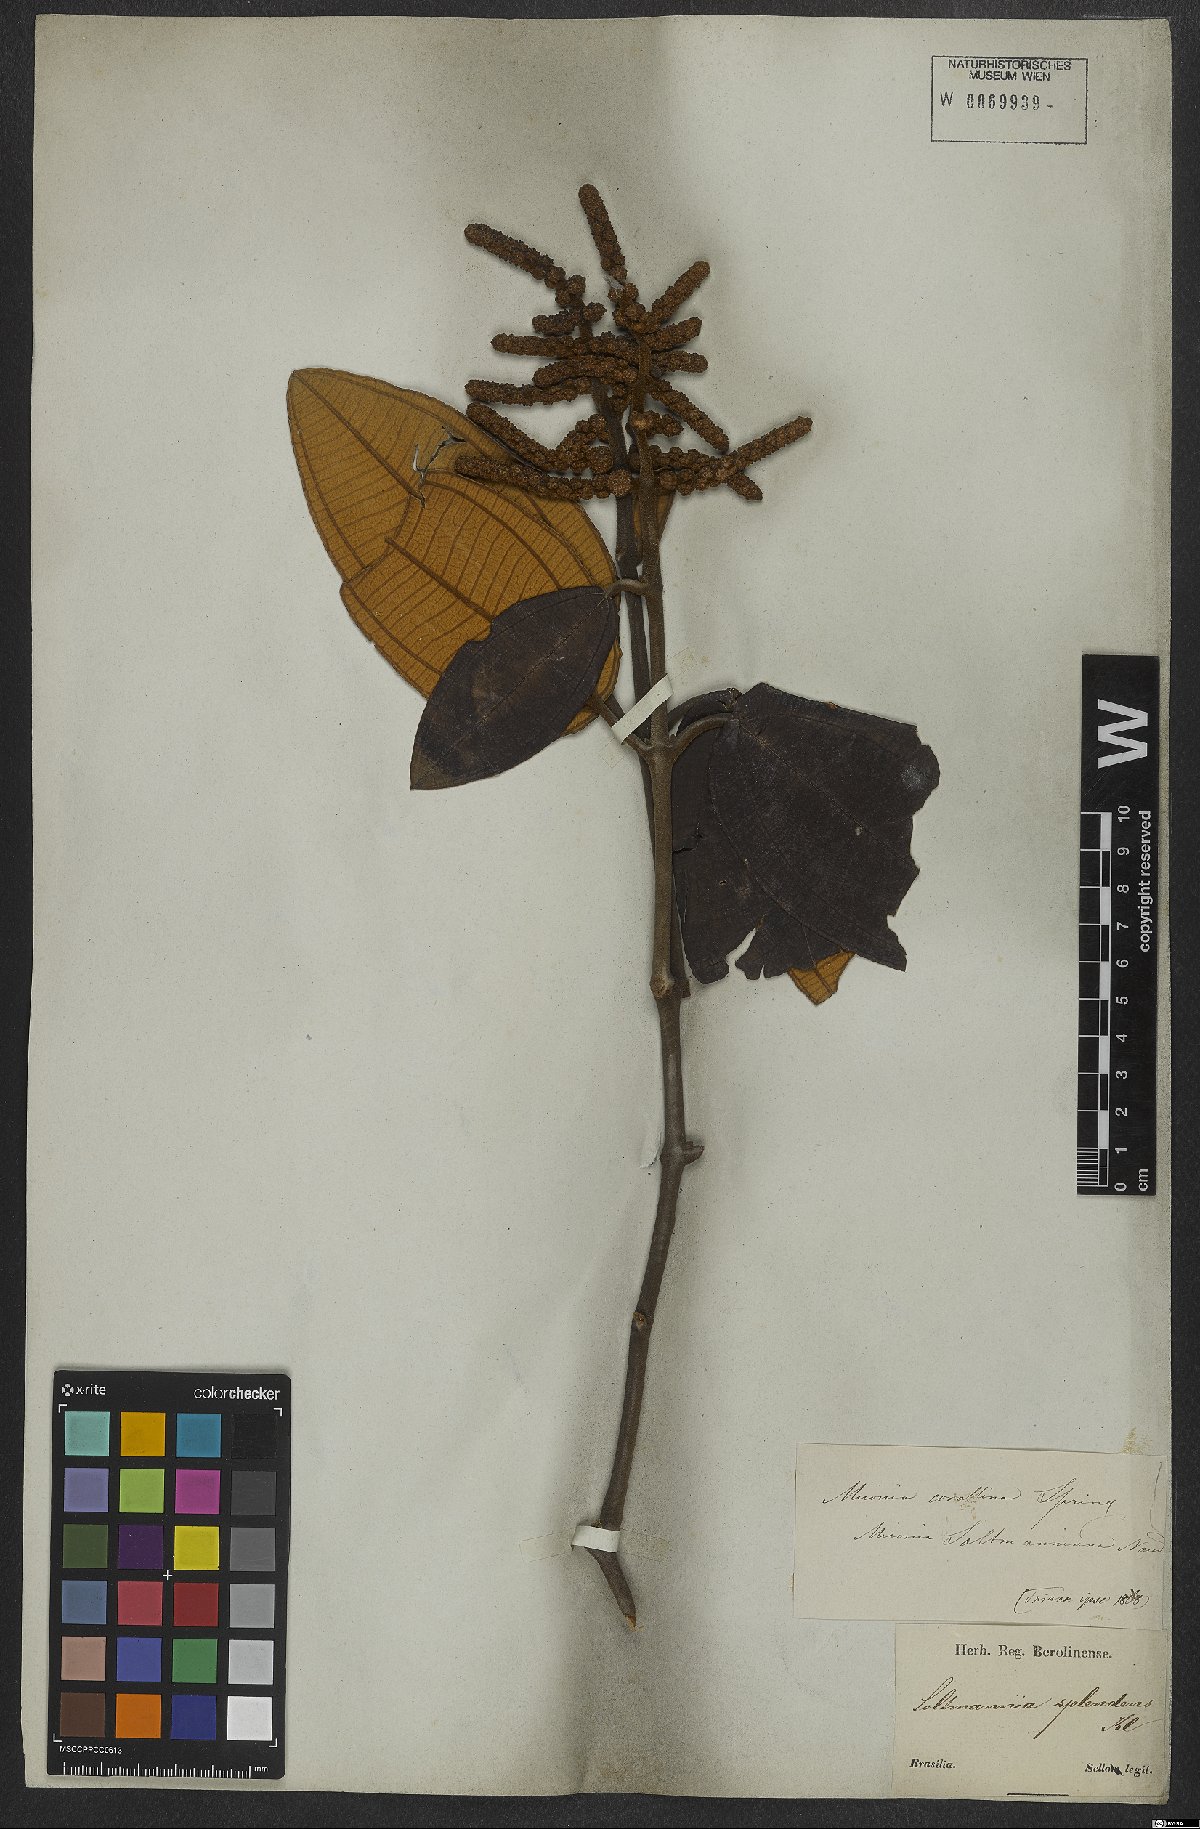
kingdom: Plantae
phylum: Tracheophyta
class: Magnoliopsida
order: Myrtales
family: Melastomataceae
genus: Miconia
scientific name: Miconia corallina
